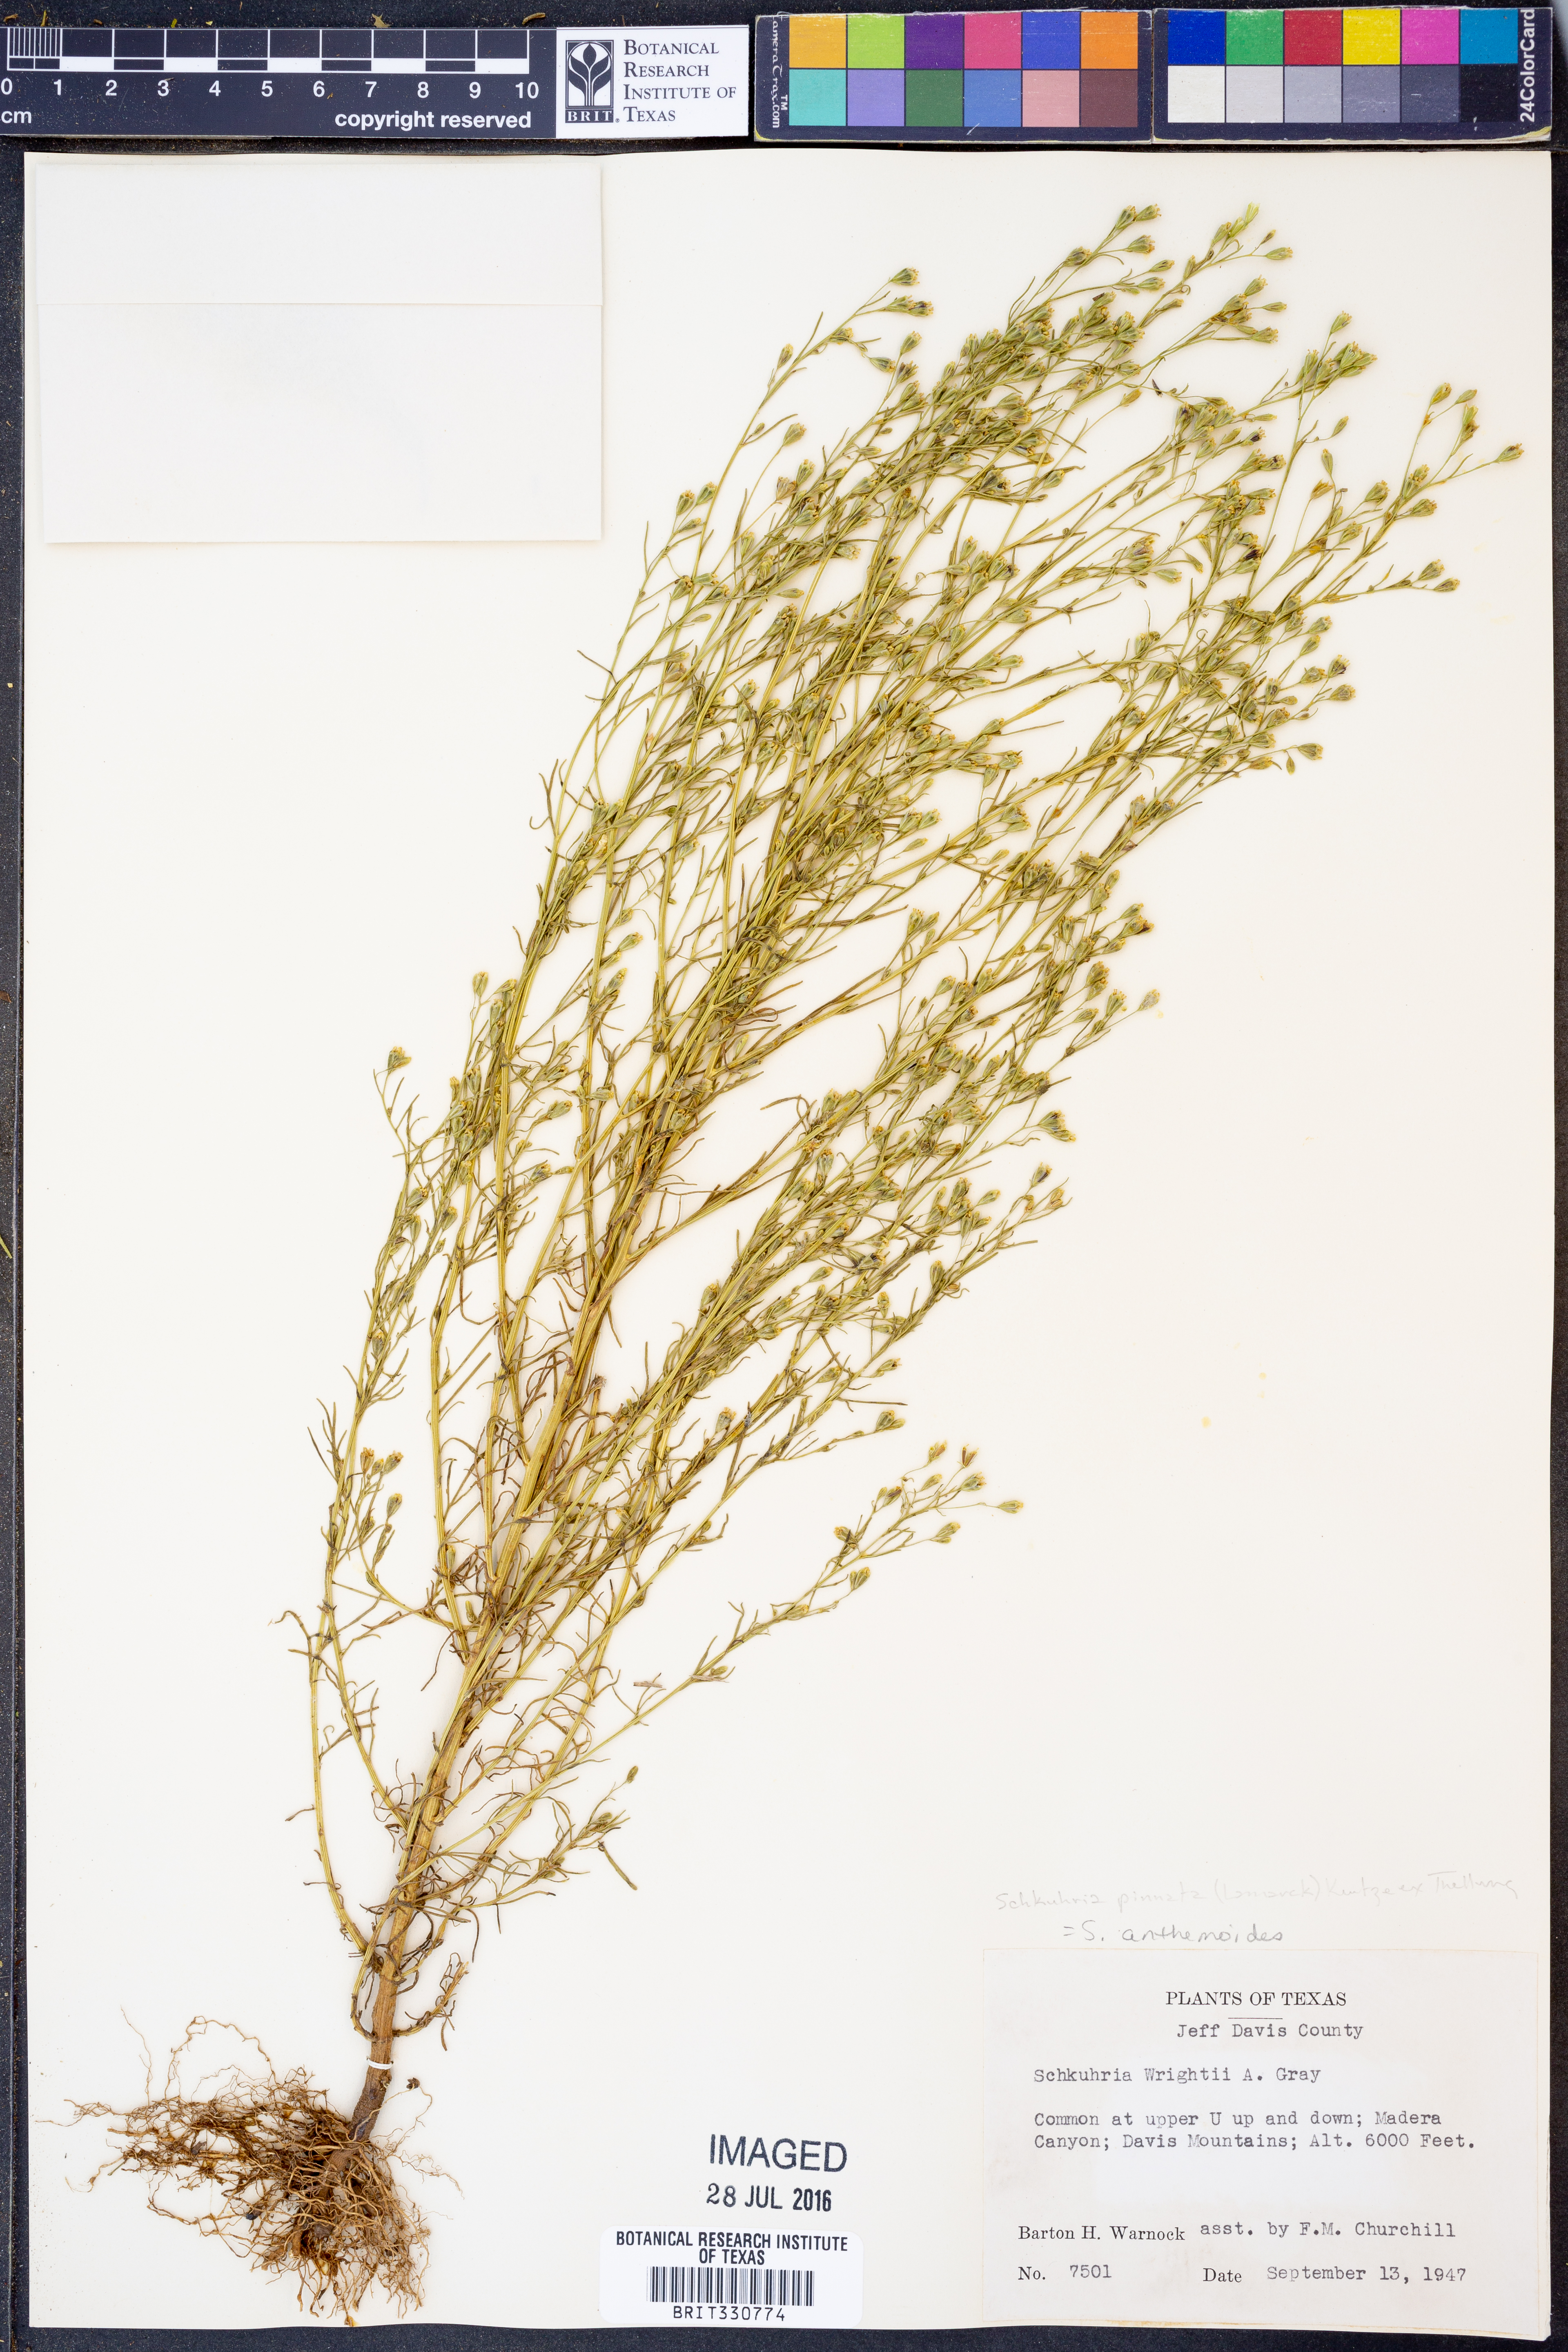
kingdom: Plantae
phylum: Tracheophyta
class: Magnoliopsida
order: Asterales
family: Asteraceae
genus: Schkuhria
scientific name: Schkuhria pinnata
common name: Dwarf marigold
